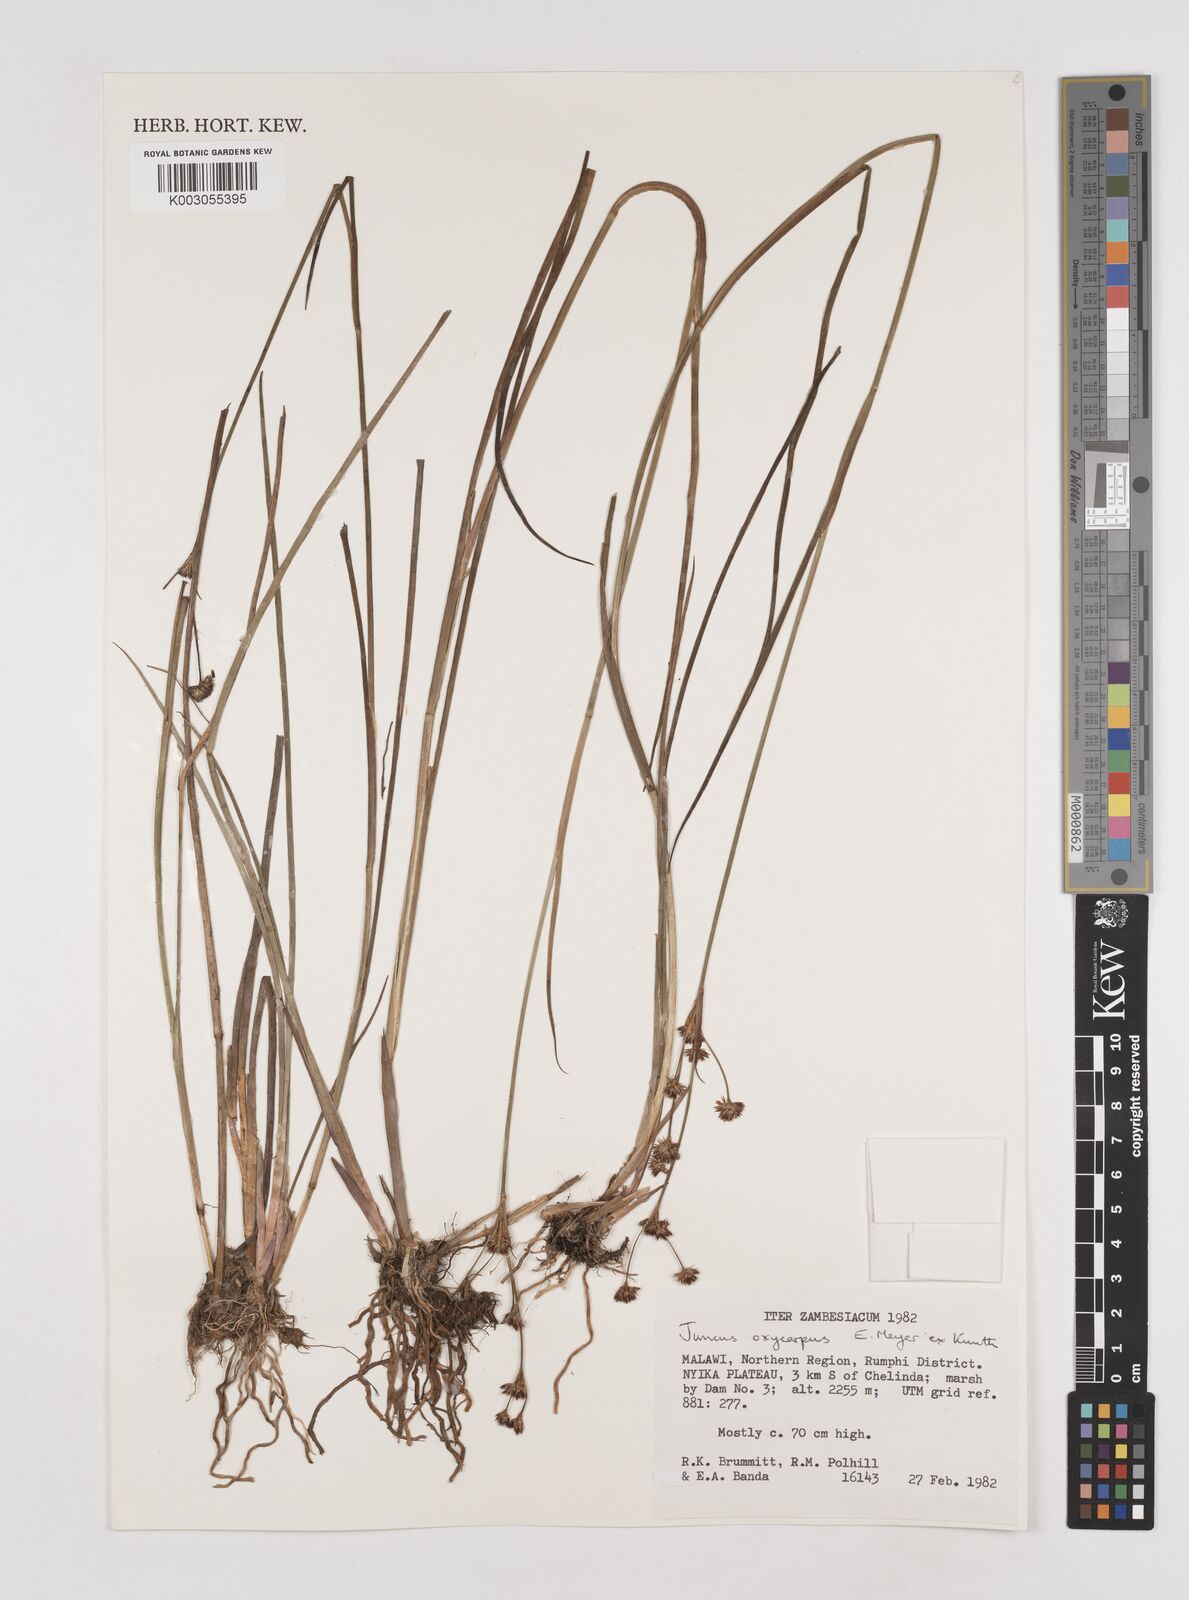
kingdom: Plantae
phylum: Tracheophyta
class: Liliopsida
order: Poales
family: Juncaceae
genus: Juncus
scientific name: Juncus oxycarpus
